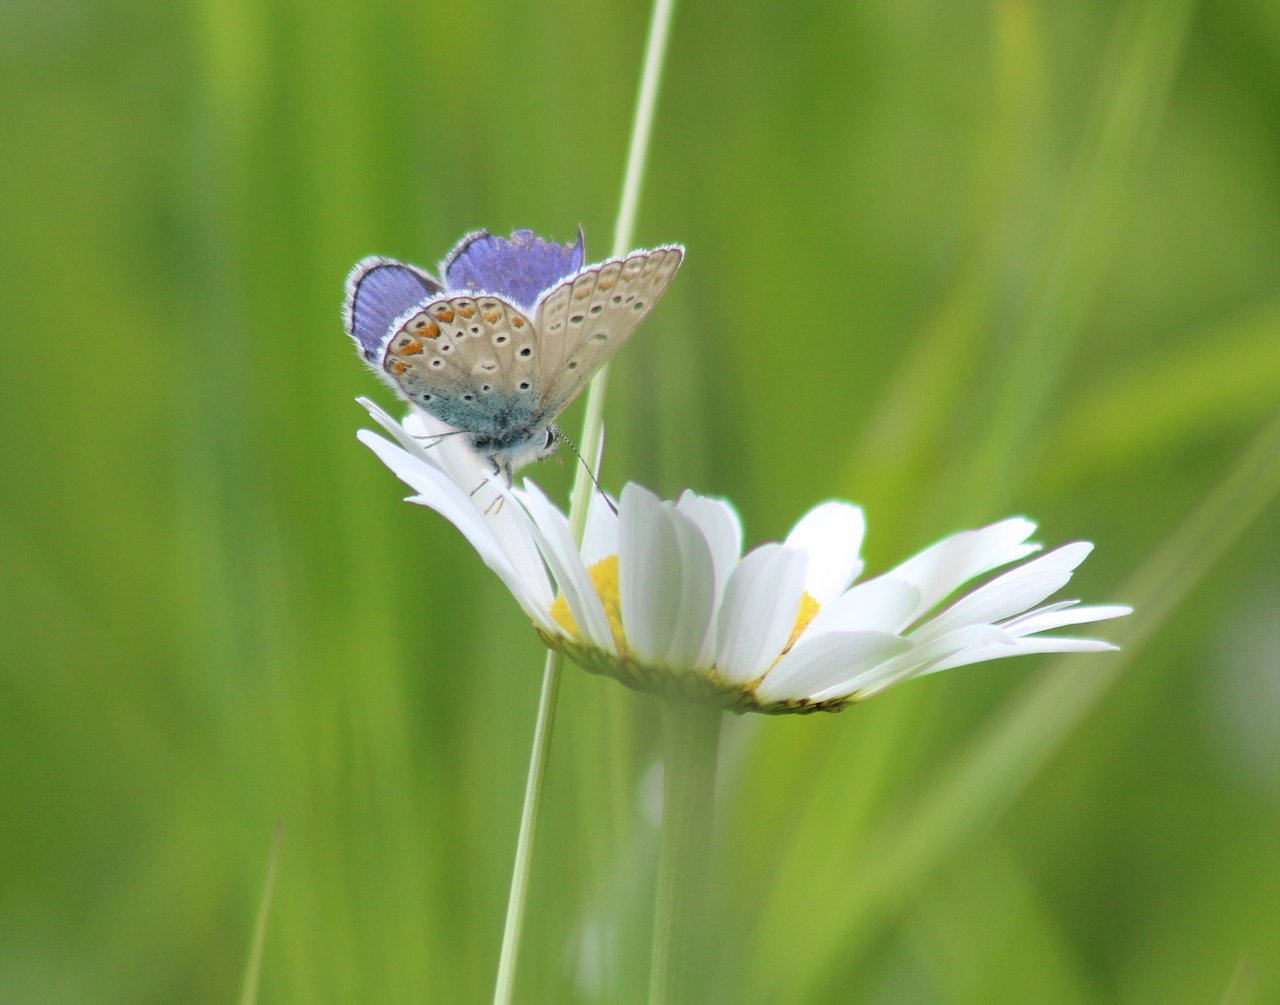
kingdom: Animalia
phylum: Arthropoda
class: Insecta
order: Lepidoptera
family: Lycaenidae
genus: Polyommatus
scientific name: Polyommatus icarus
